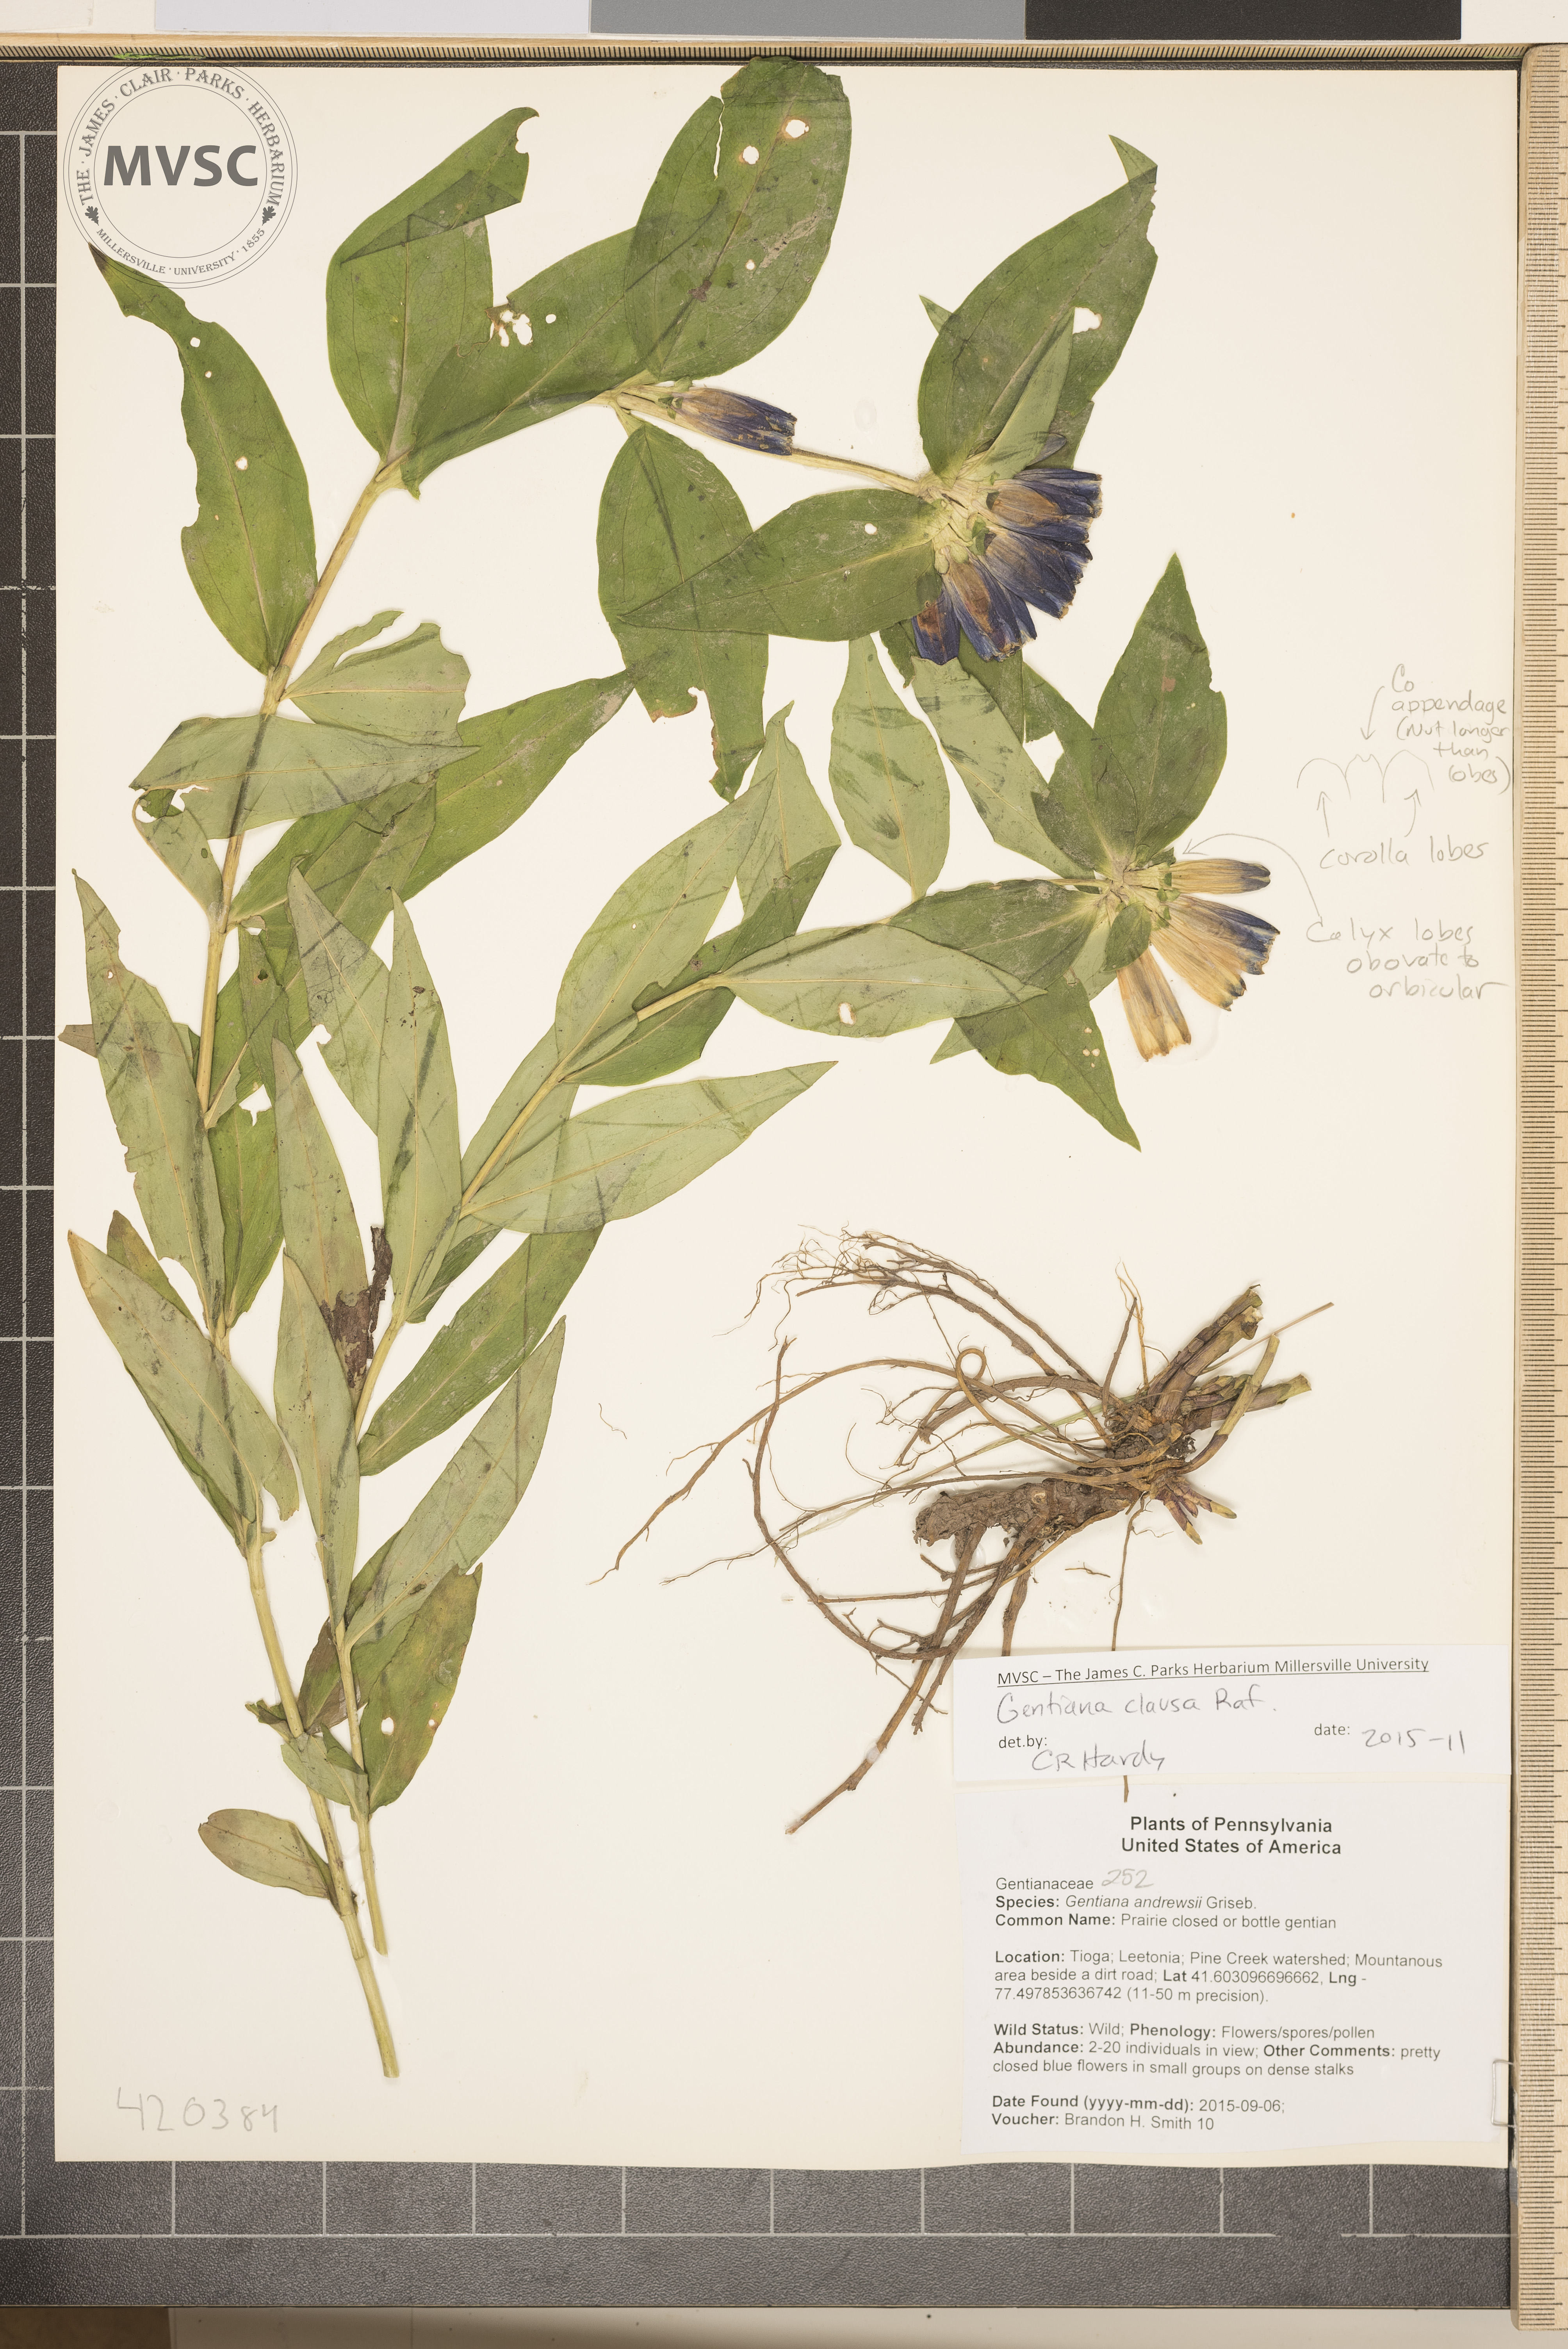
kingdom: Plantae
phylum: Tracheophyta
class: Magnoliopsida
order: Gentianales
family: Gentianaceae
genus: Gentiana
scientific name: Gentiana clausa
